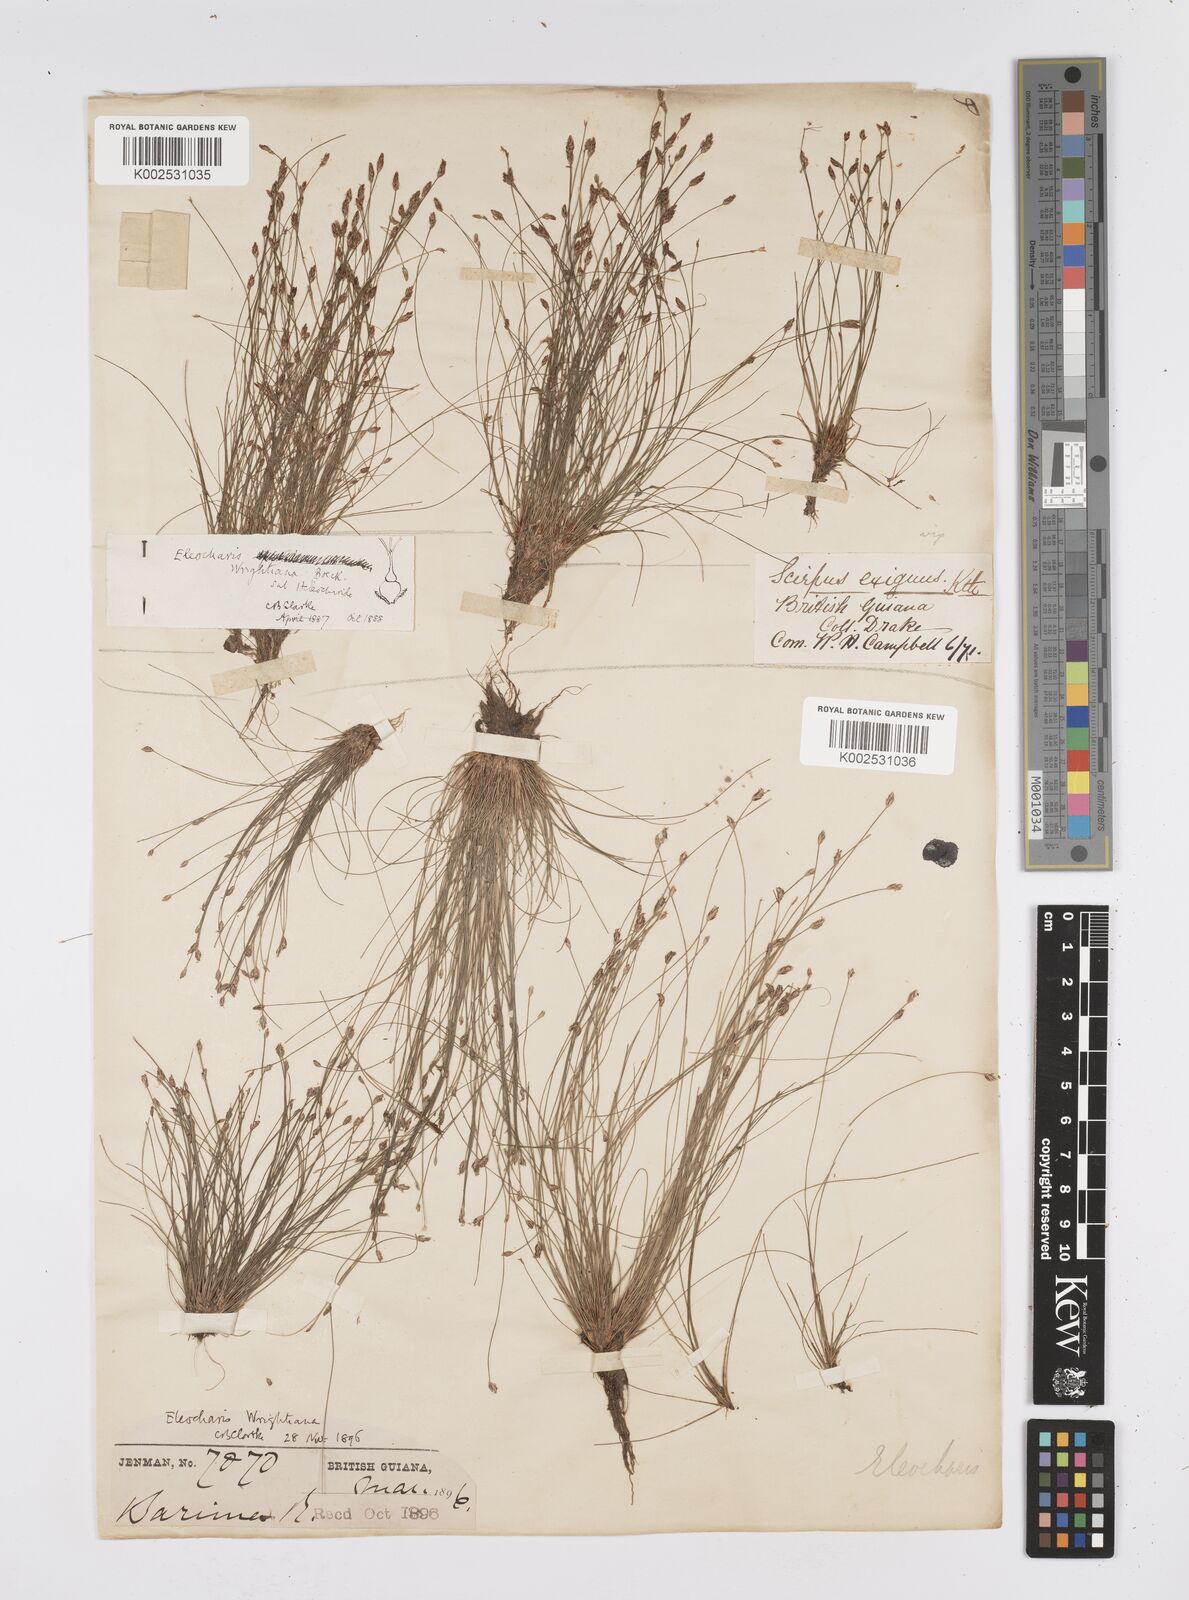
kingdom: Plantae
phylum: Tracheophyta
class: Liliopsida
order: Poales
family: Cyperaceae
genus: Eleocharis
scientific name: Eleocharis subfoliata
